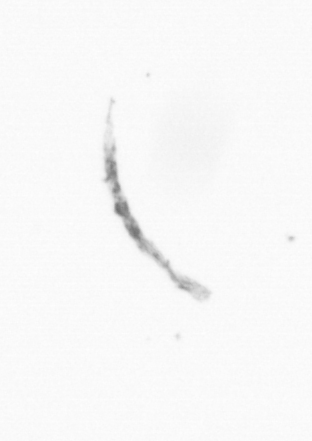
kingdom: Chromista
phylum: Ochrophyta
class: Bacillariophyceae
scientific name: Bacillariophyceae
